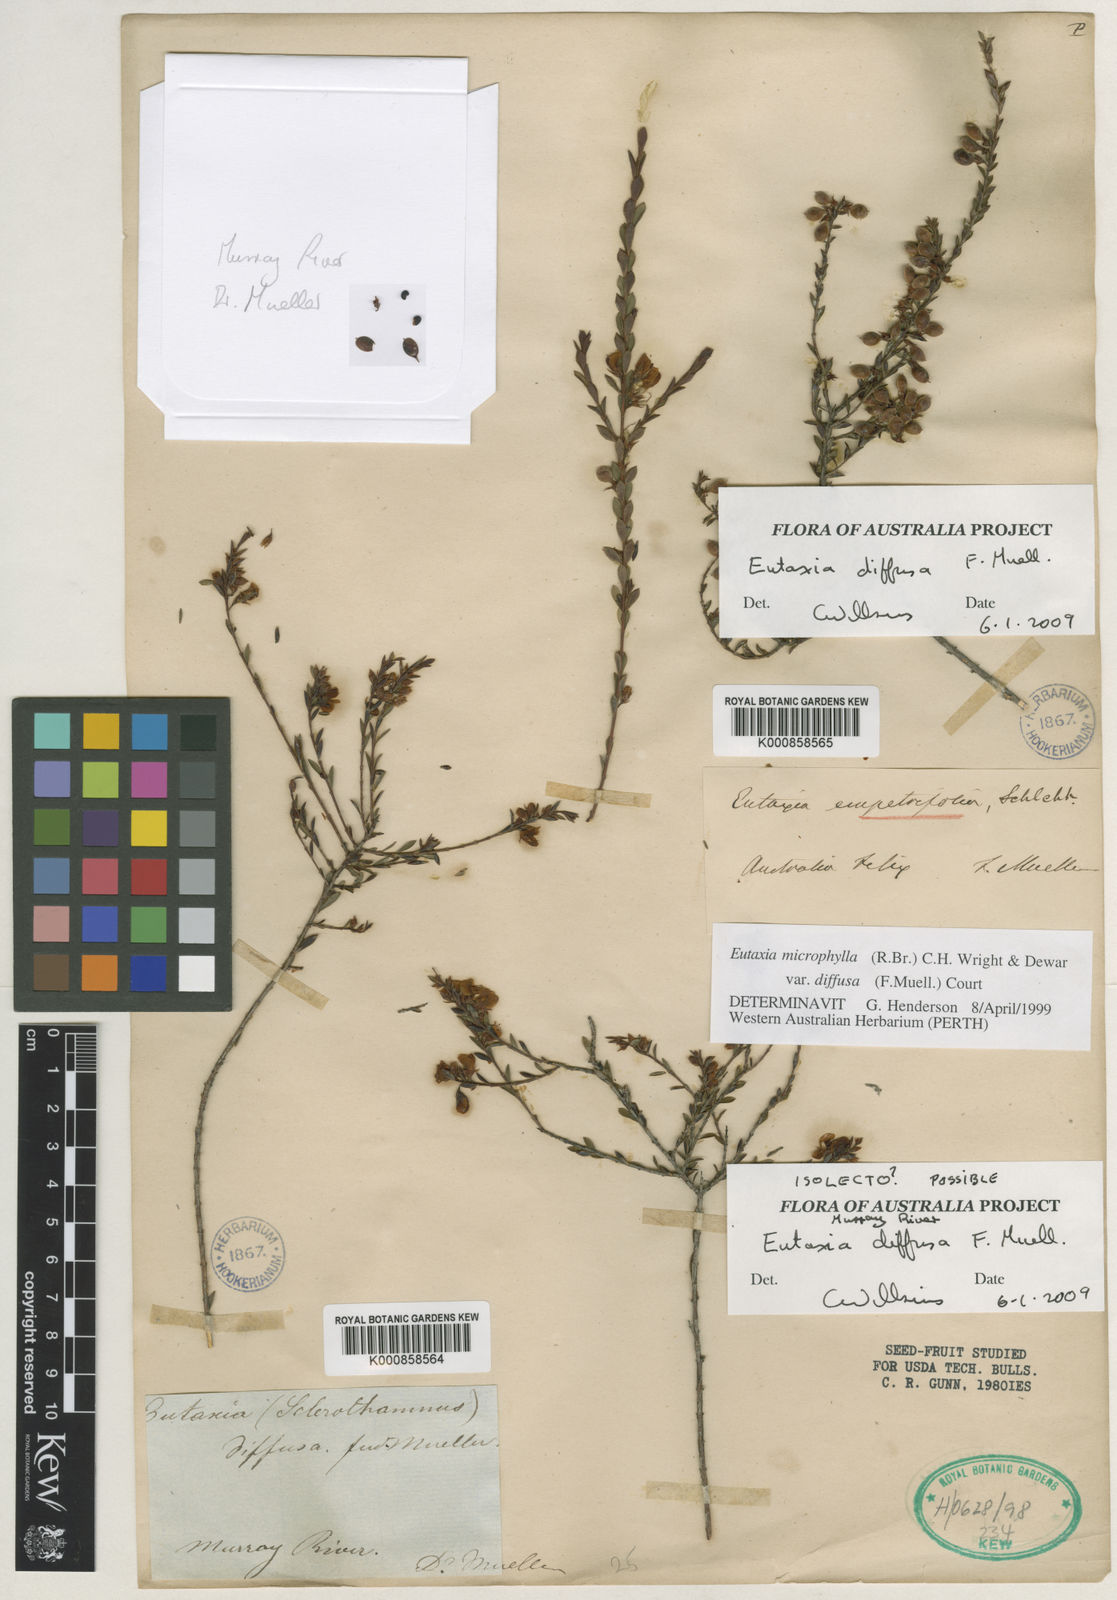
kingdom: Plantae
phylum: Tracheophyta
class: Magnoliopsida
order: Fabales
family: Fabaceae
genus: Eutaxia
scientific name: Eutaxia diffusa
